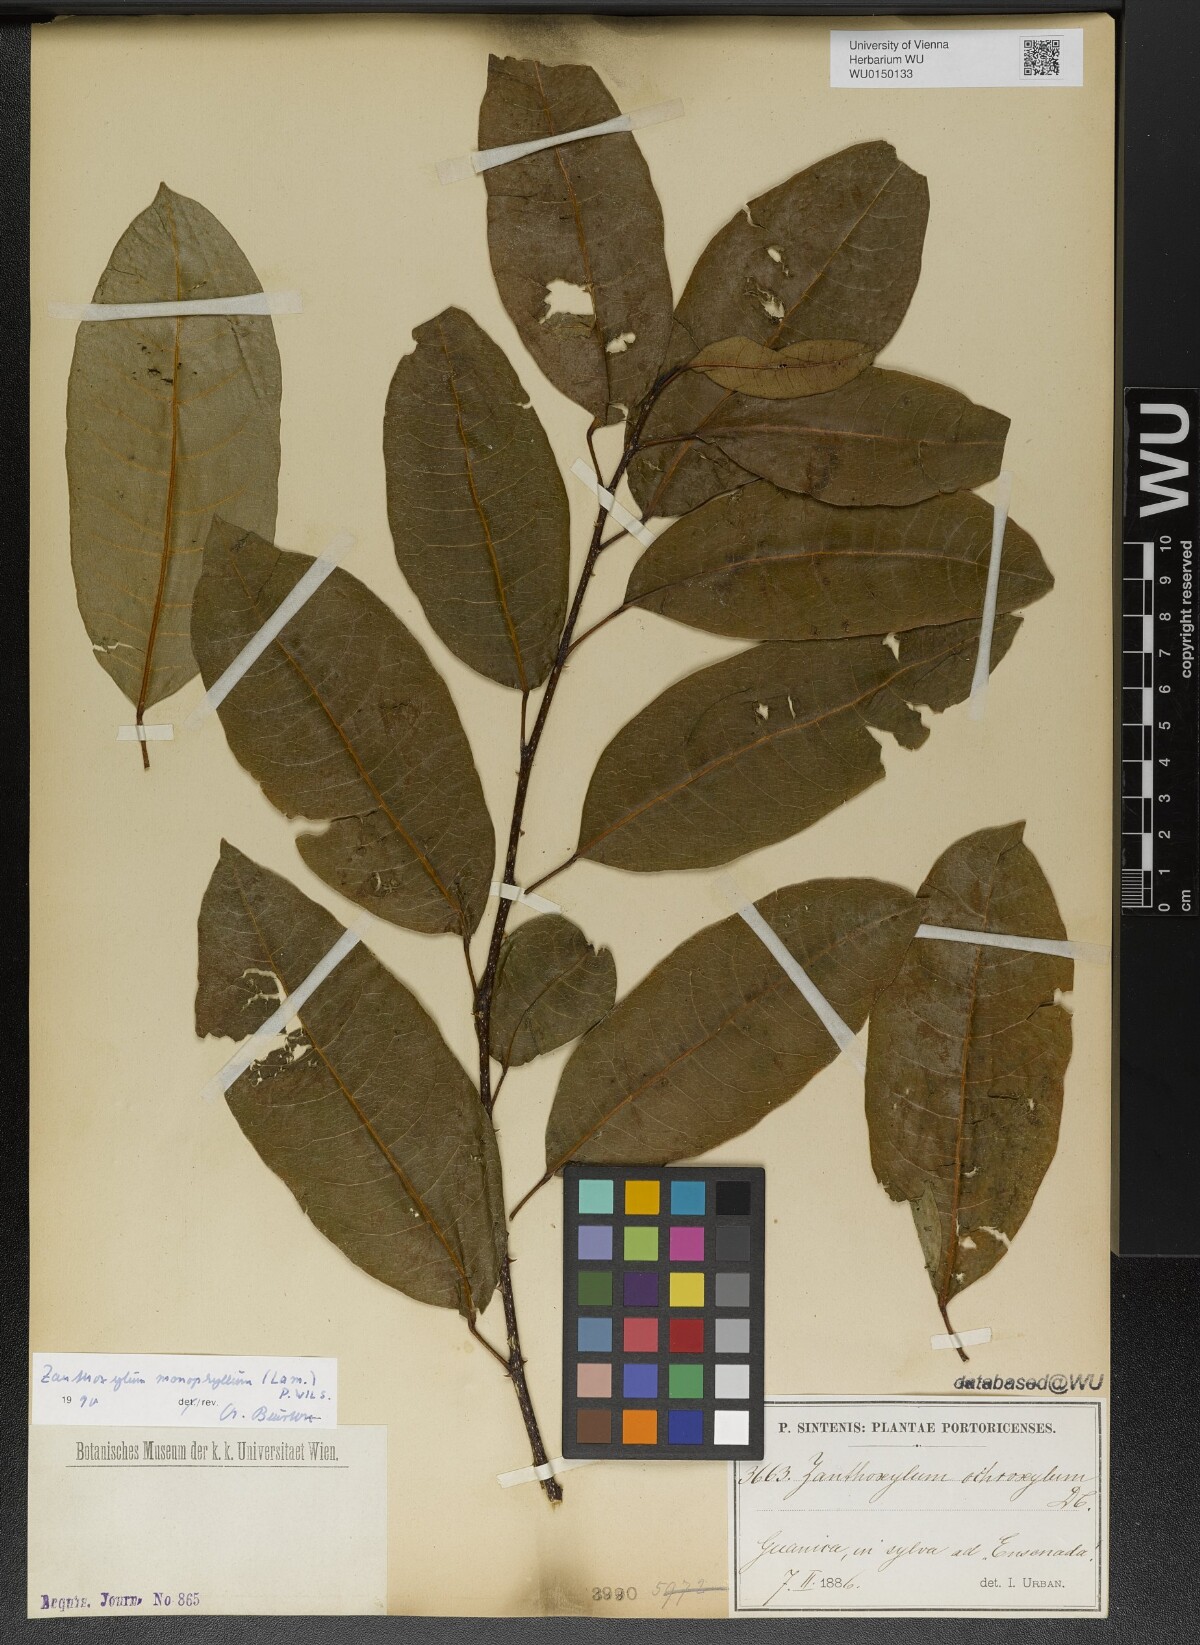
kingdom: Plantae
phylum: Tracheophyta
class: Magnoliopsida
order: Sapindales
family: Rutaceae
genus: Zanthoxylum
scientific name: Zanthoxylum schreberi
